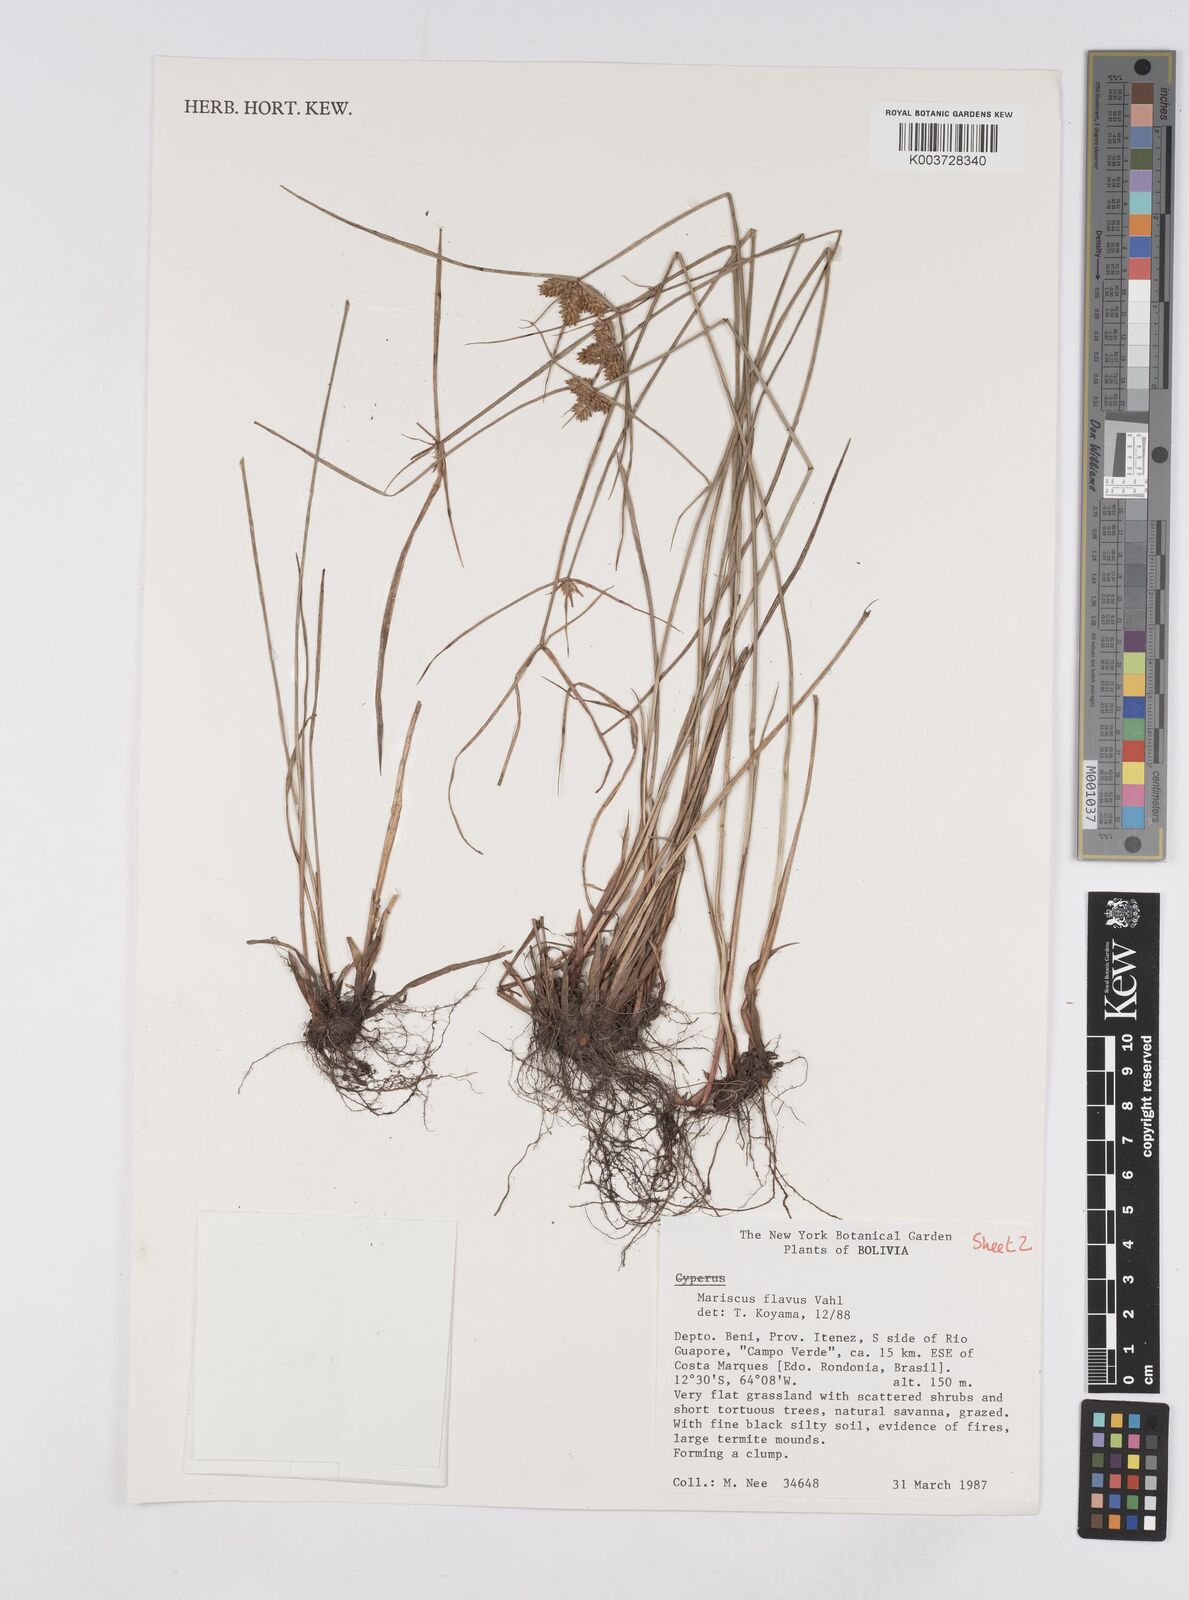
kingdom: Plantae
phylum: Tracheophyta
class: Liliopsida
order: Poales
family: Cyperaceae
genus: Cyperus
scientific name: Cyperus aggregatus
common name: Inflatedscale flatsedge
